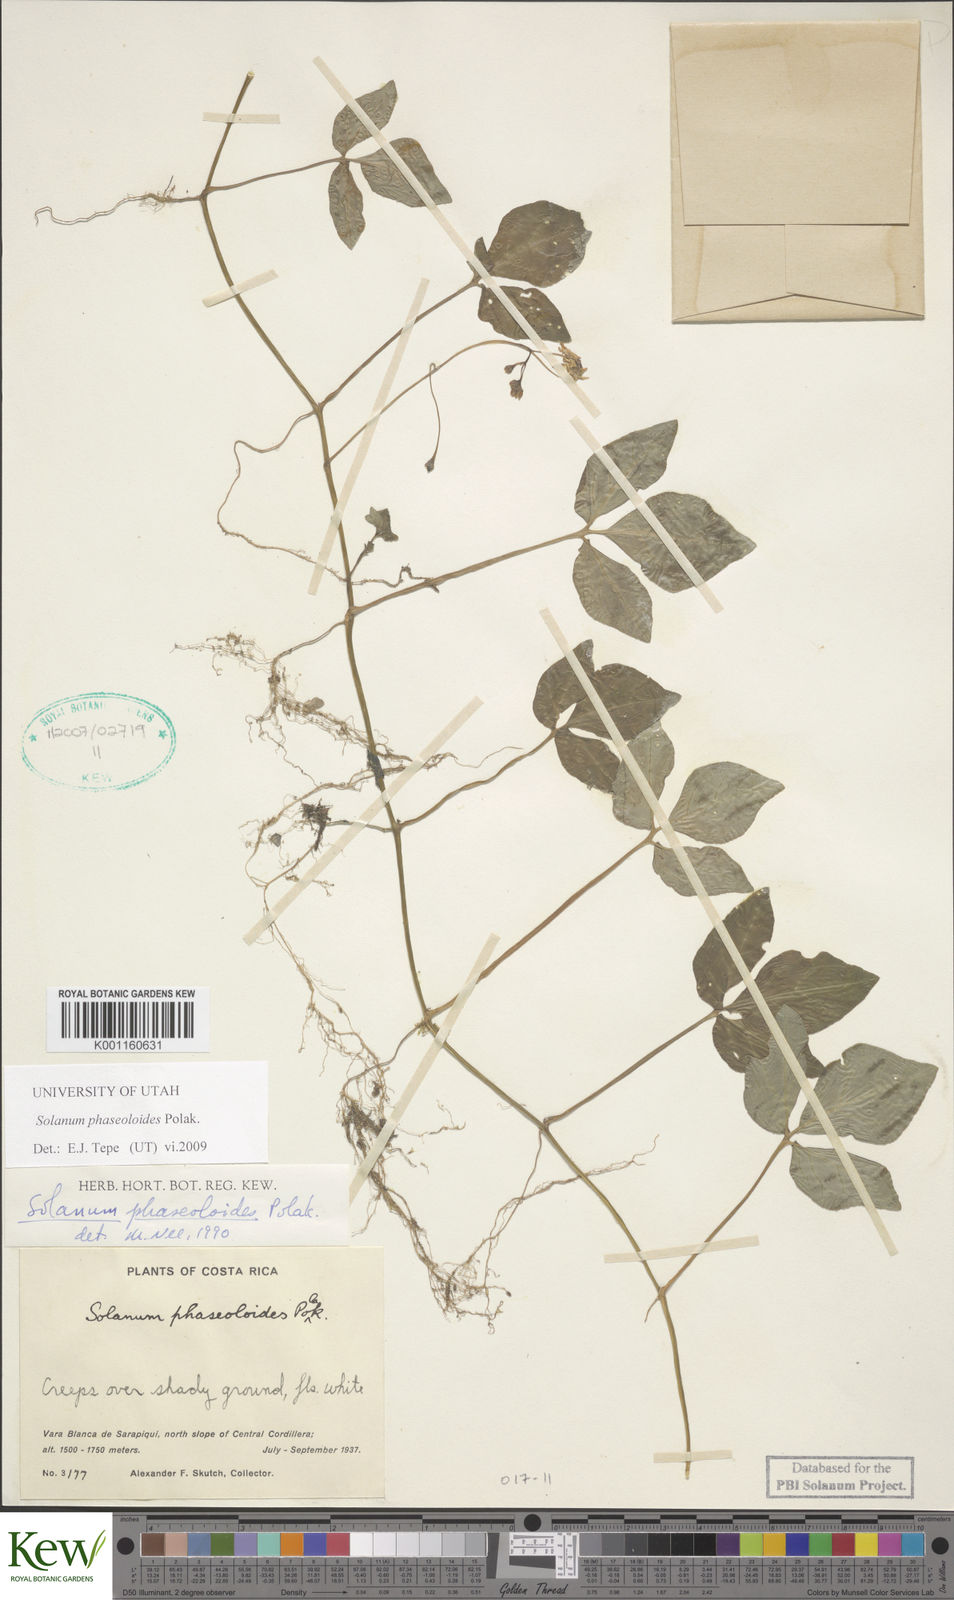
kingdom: Plantae
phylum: Tracheophyta
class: Magnoliopsida
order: Solanales
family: Solanaceae
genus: Solanum
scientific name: Solanum phaseoloides
